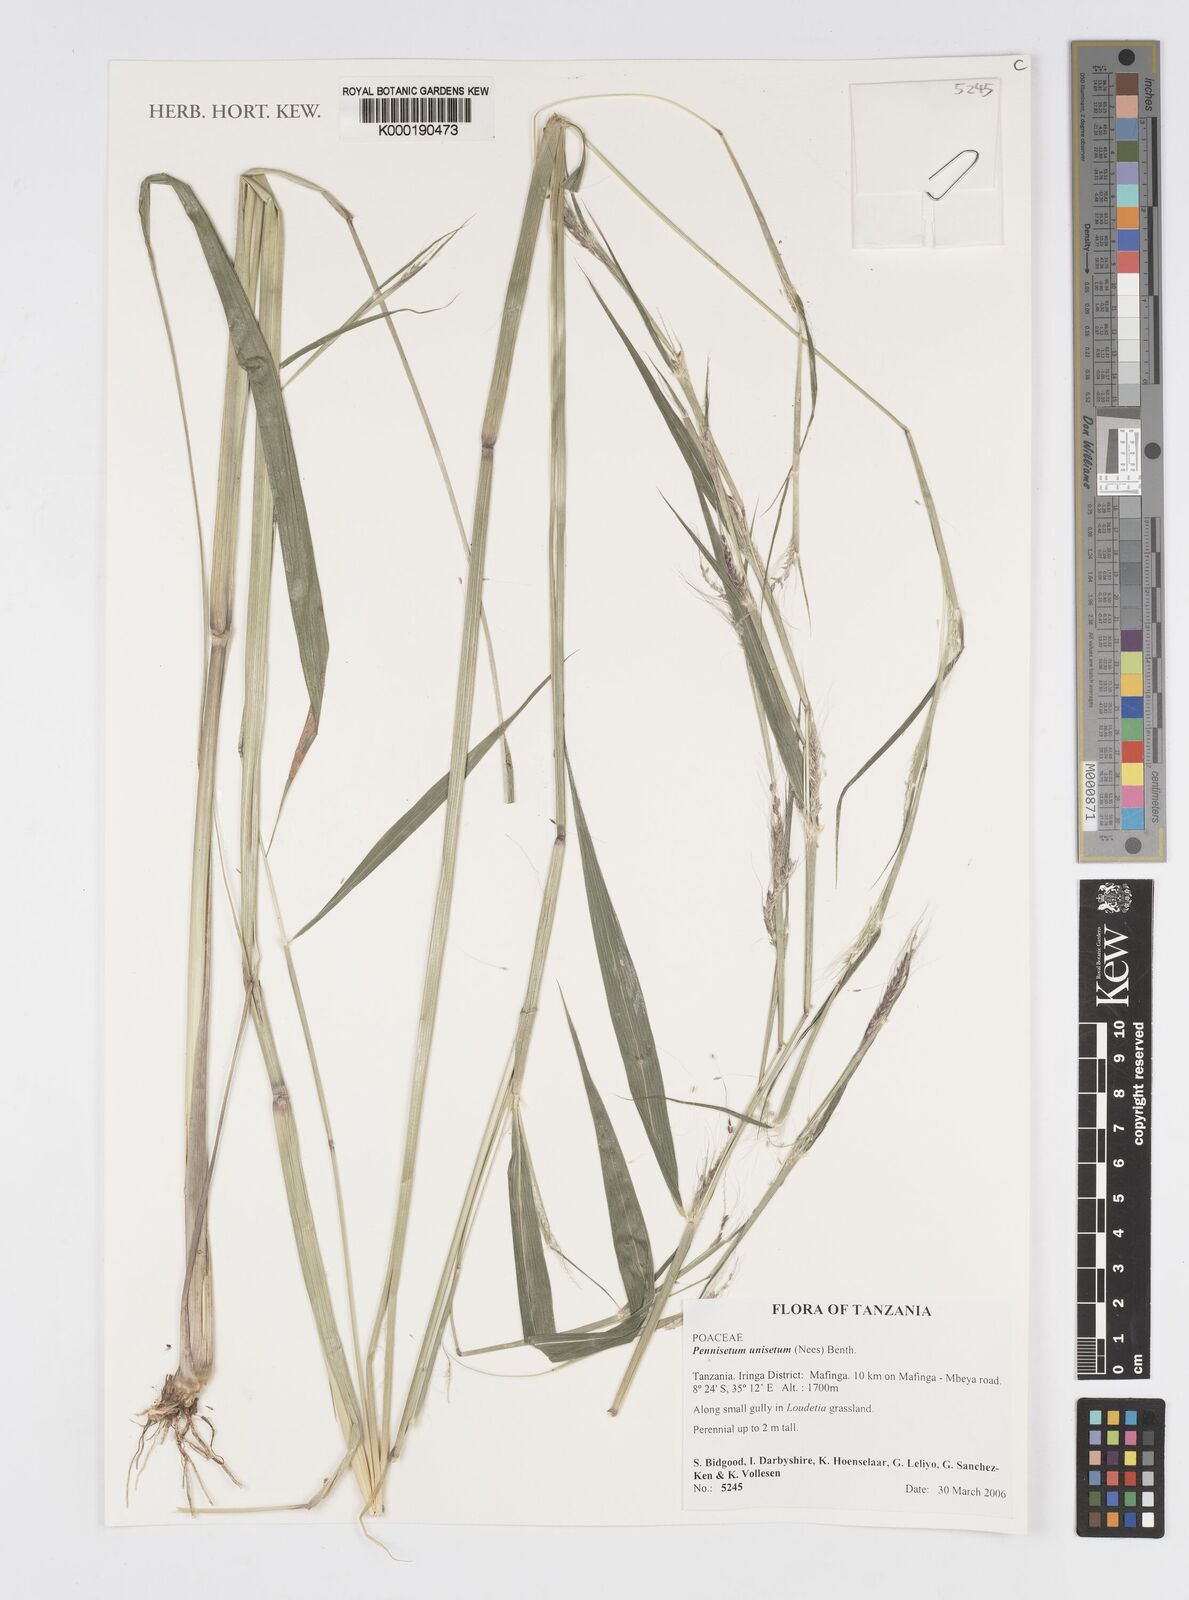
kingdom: Plantae
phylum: Tracheophyta
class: Liliopsida
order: Poales
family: Poaceae
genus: Cenchrus
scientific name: Cenchrus unisetus
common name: Natal grass
